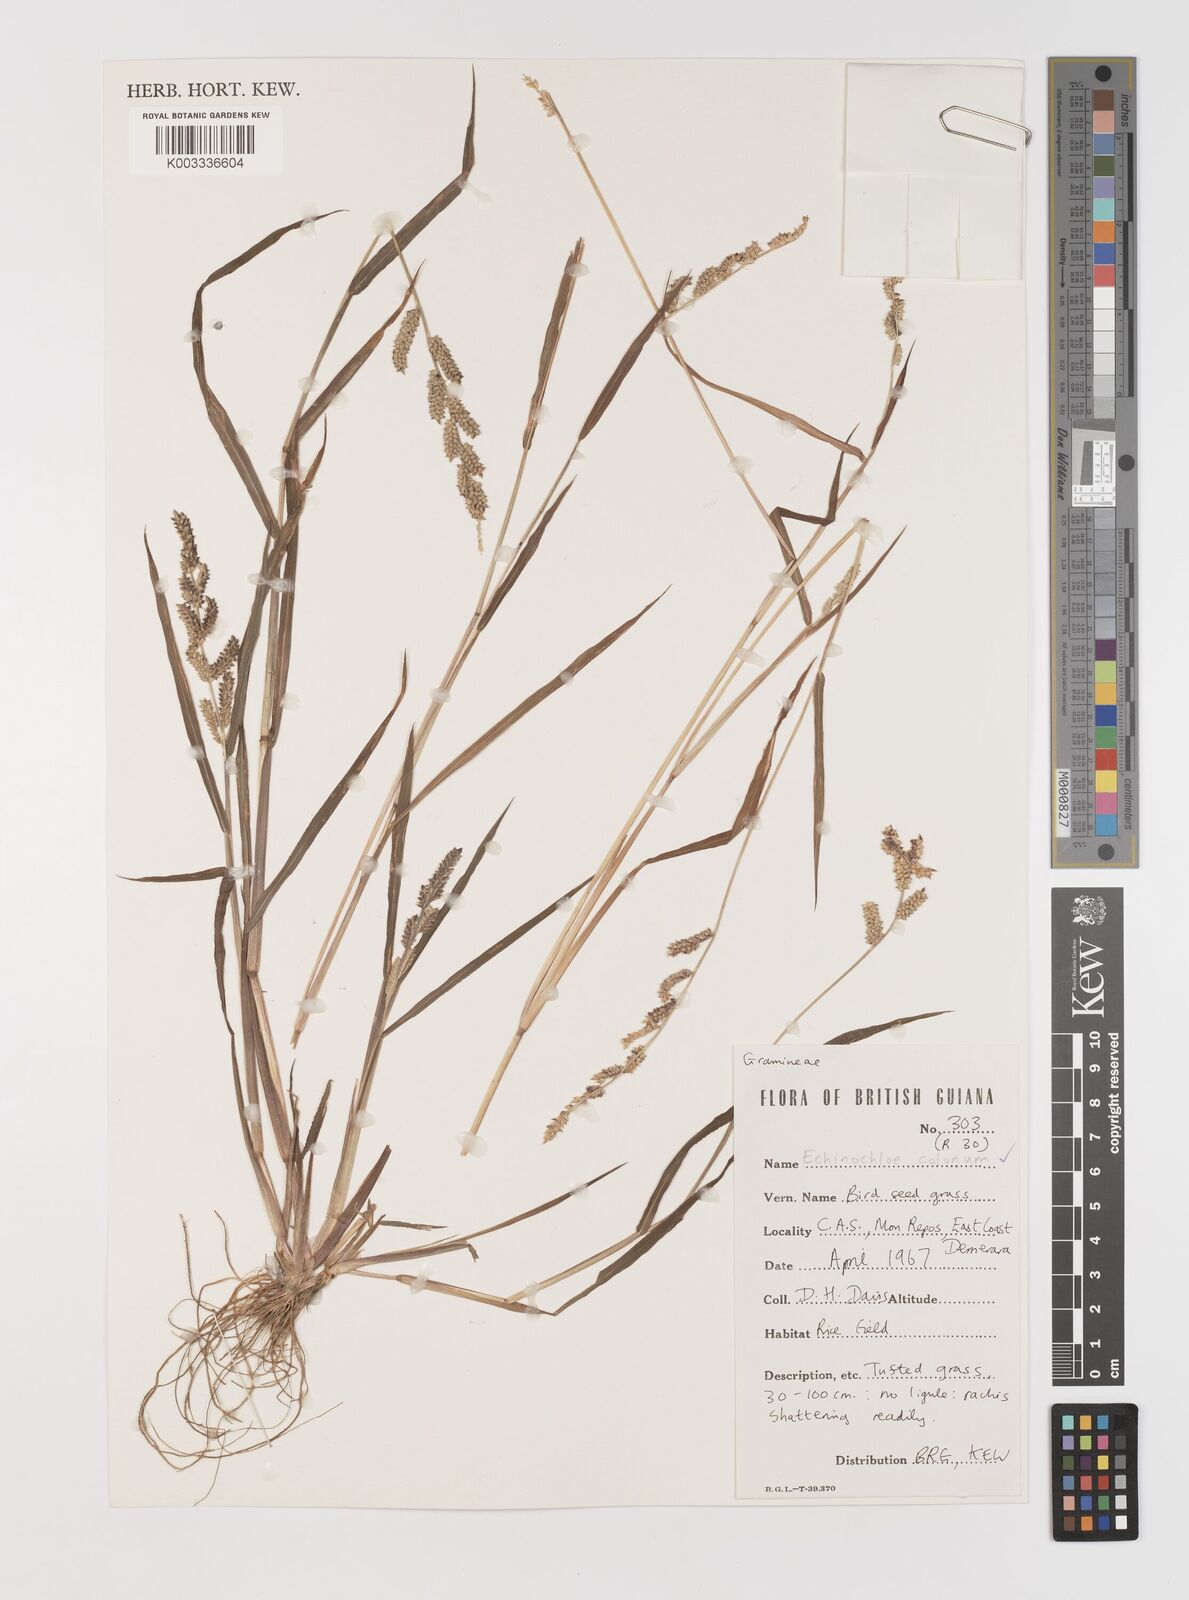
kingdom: Plantae
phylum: Tracheophyta
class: Liliopsida
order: Poales
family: Poaceae
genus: Echinochloa
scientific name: Echinochloa colonum
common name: Jungle rice
